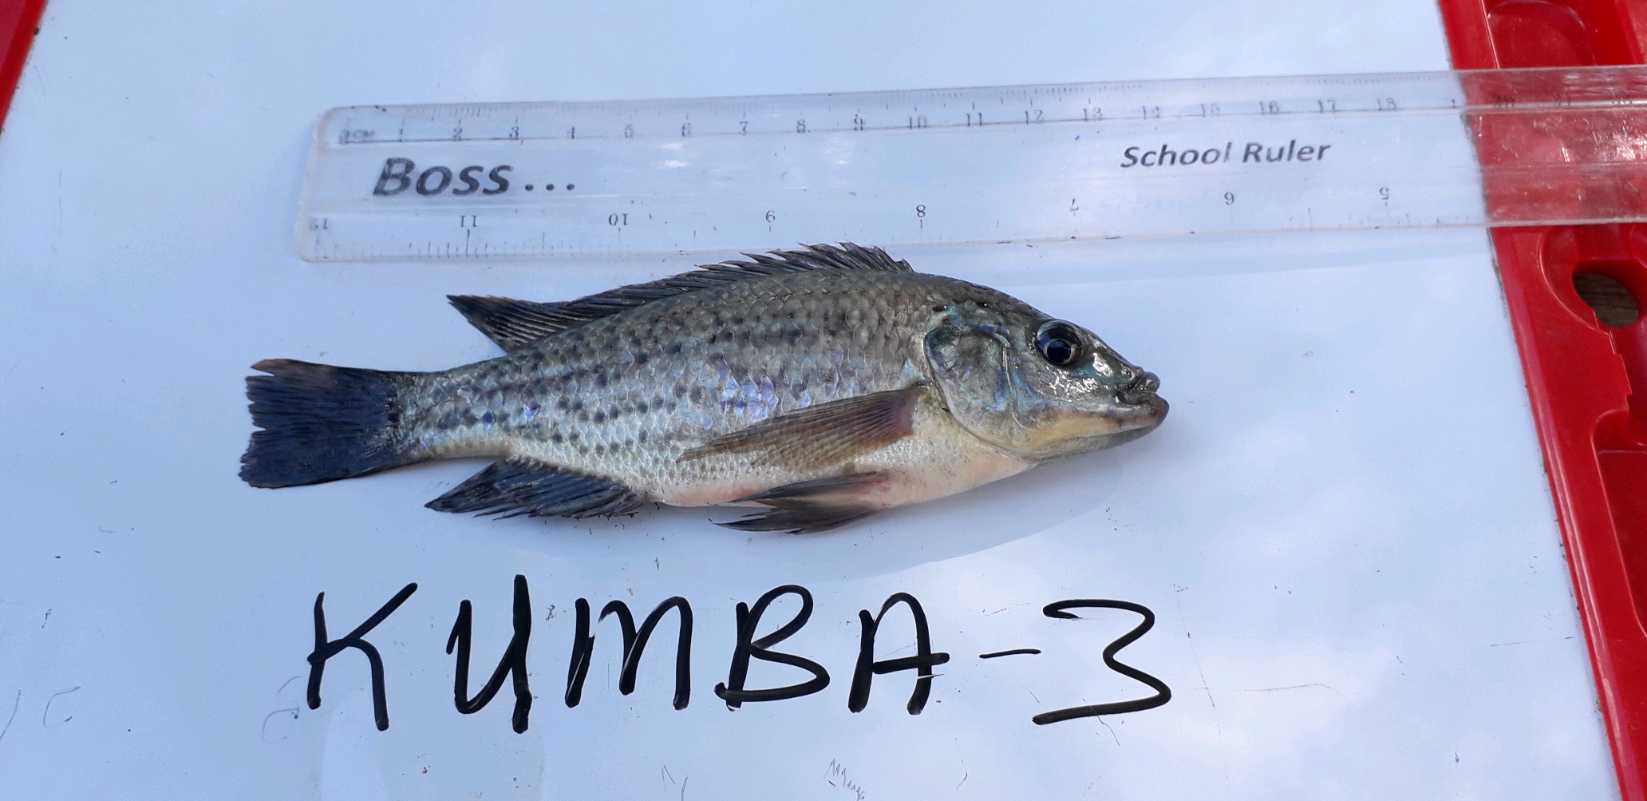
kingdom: Animalia
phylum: Chordata
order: Perciformes
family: Cichlidae
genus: Oreochromis
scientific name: Oreochromis jipe
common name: Jipe tilapia
